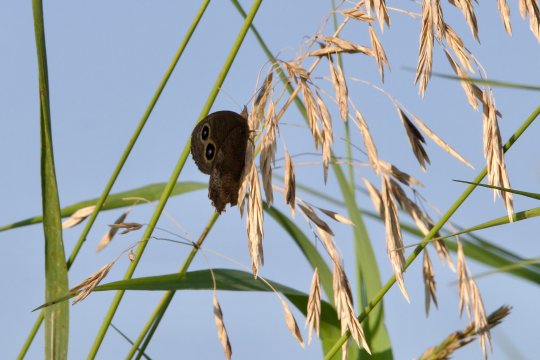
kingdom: Animalia
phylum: Arthropoda
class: Insecta
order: Lepidoptera
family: Nymphalidae
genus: Cercyonis
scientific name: Cercyonis pegala
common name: Common Wood-Nymph
